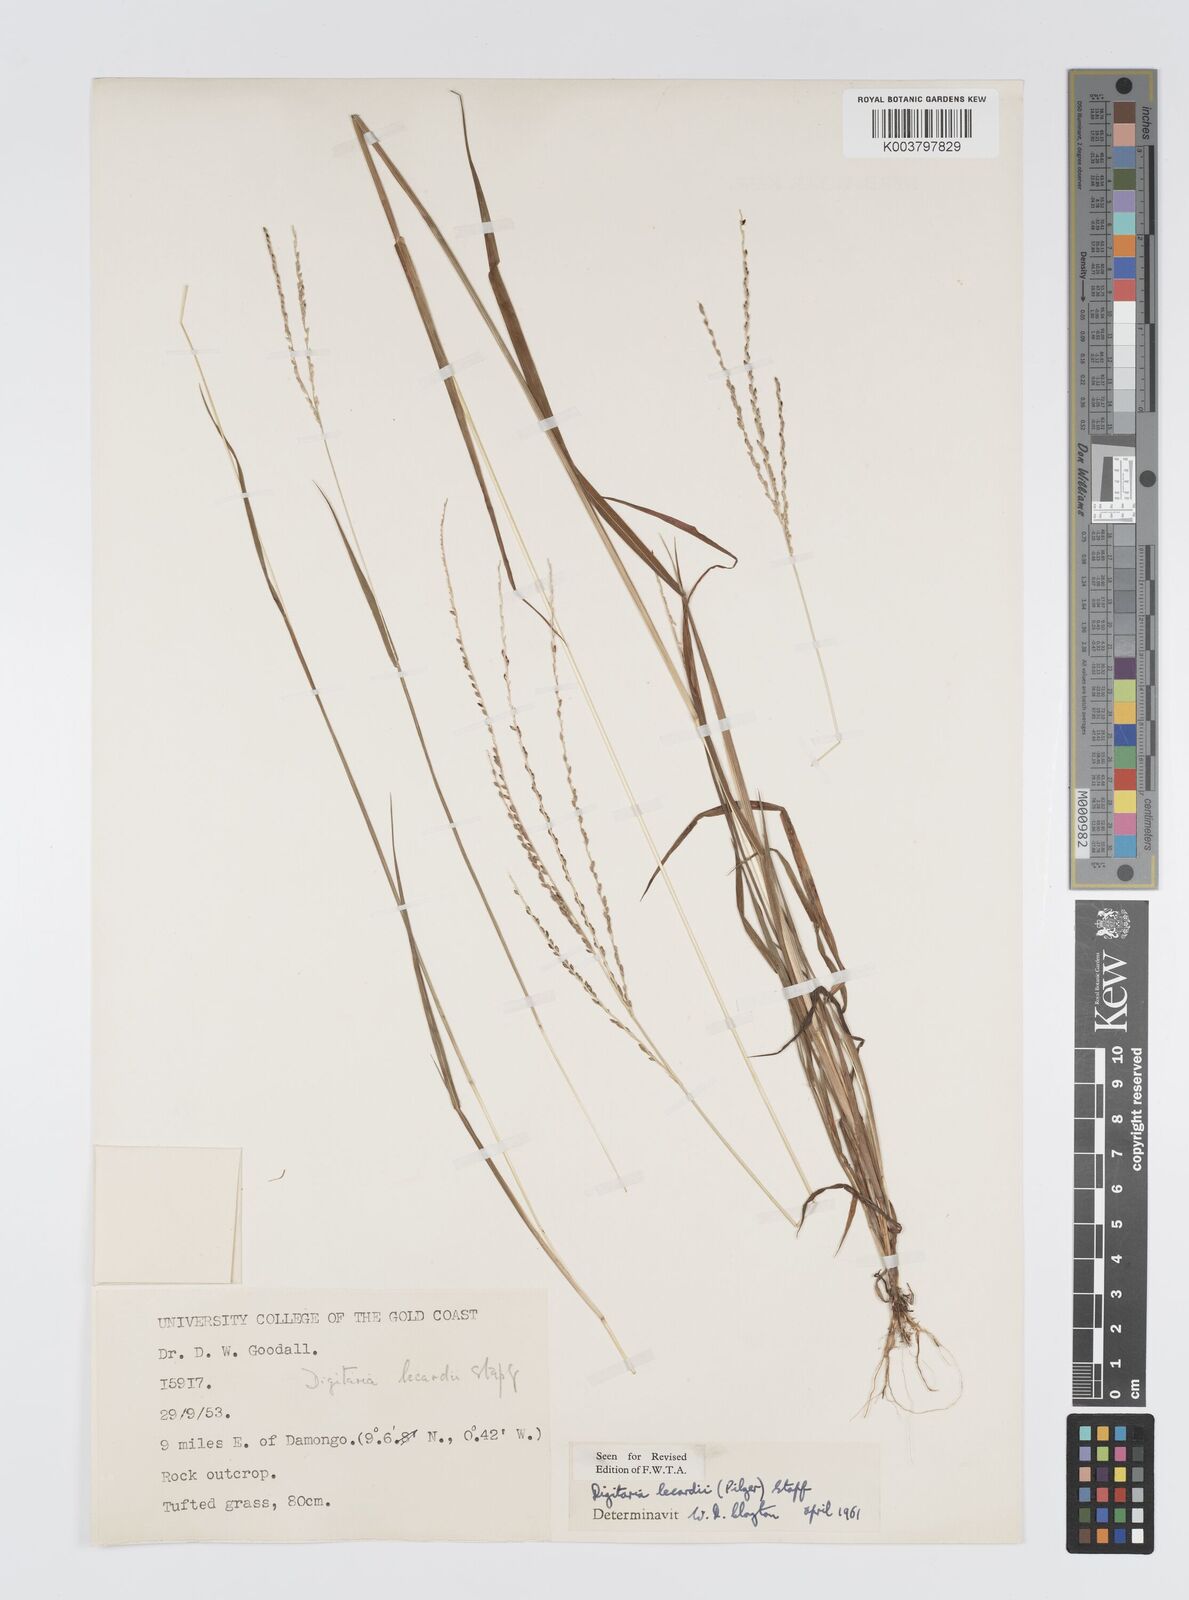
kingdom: Plantae
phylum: Tracheophyta
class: Liliopsida
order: Poales
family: Poaceae
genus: Digitaria
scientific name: Digitaria
